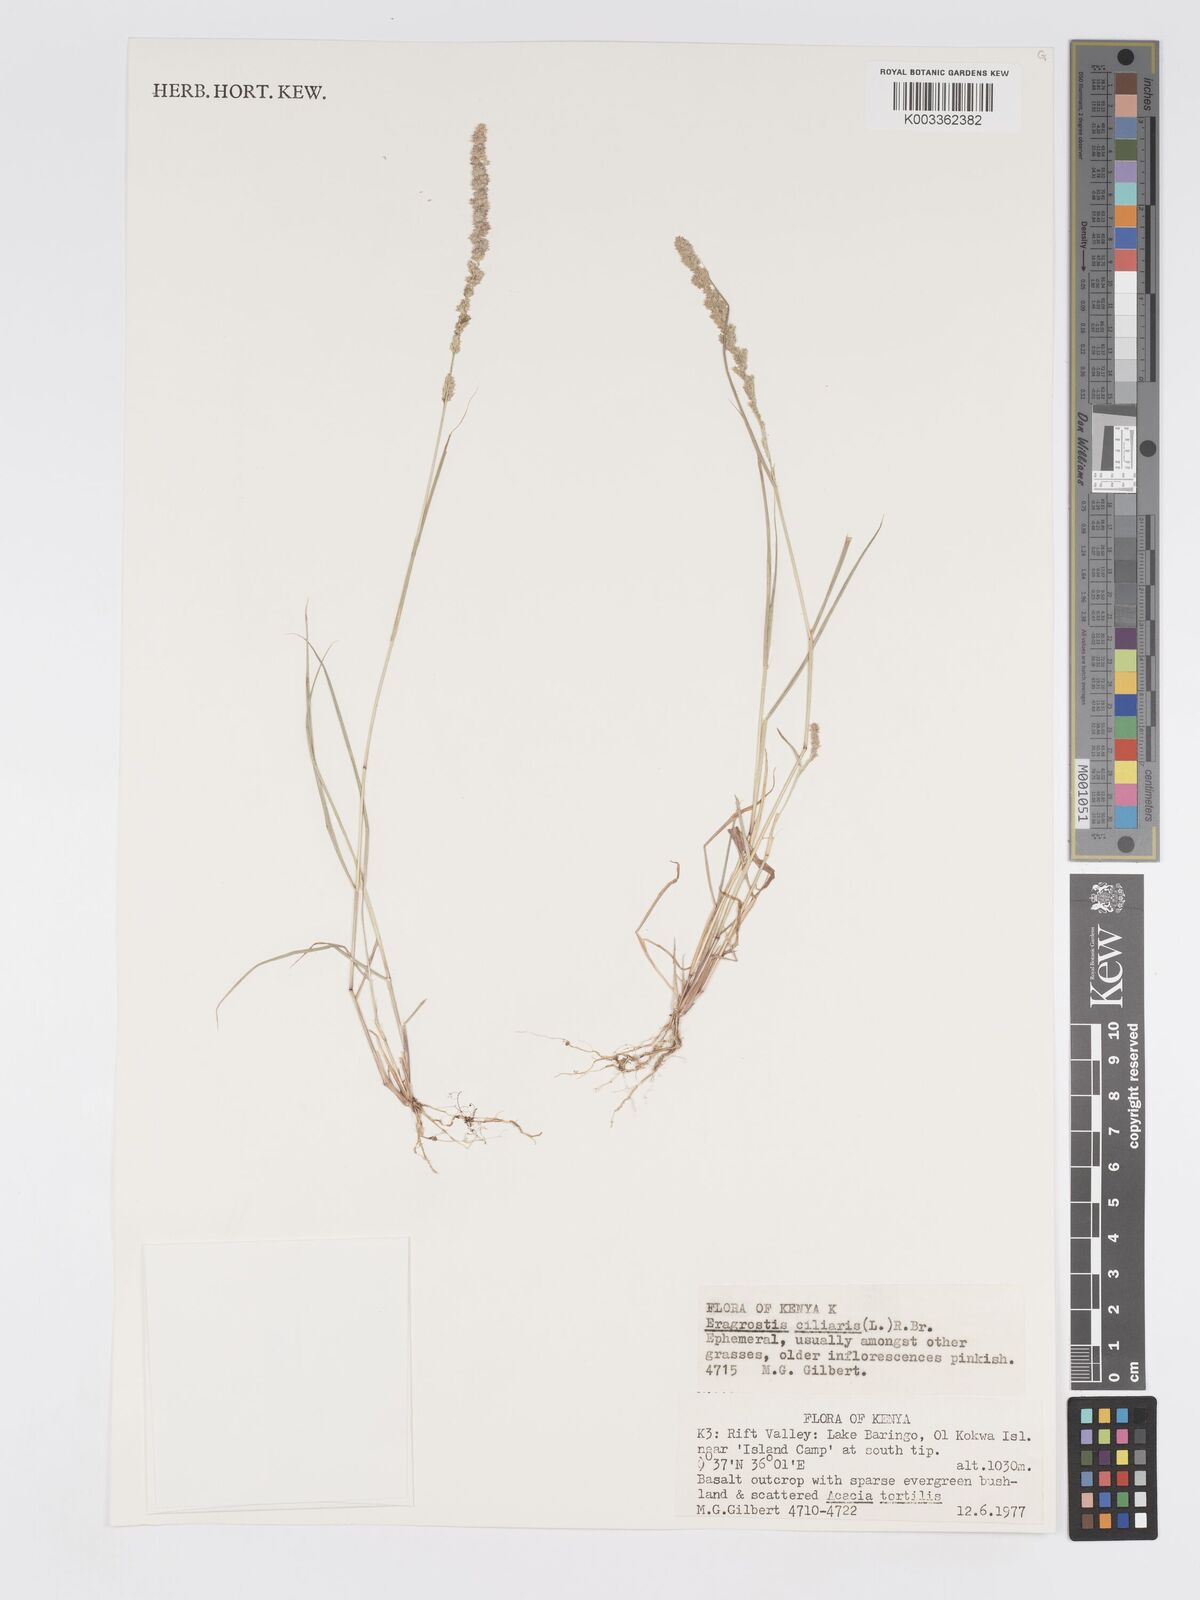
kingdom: Plantae
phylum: Tracheophyta
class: Liliopsida
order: Poales
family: Poaceae
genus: Eragrostis
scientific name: Eragrostis ciliaris
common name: Gophertail lovegrass
